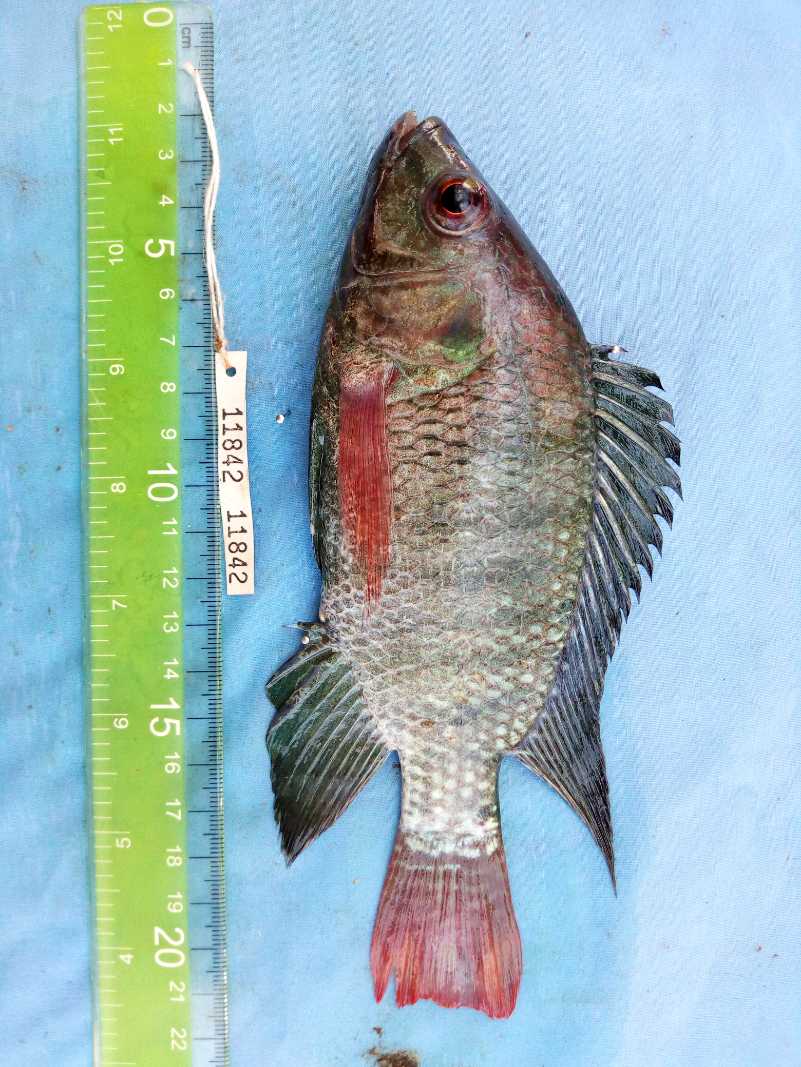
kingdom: Animalia
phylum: Chordata
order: Perciformes
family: Cichlidae
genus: Oreochromis
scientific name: Oreochromis niloticus
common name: Nile tilapia
